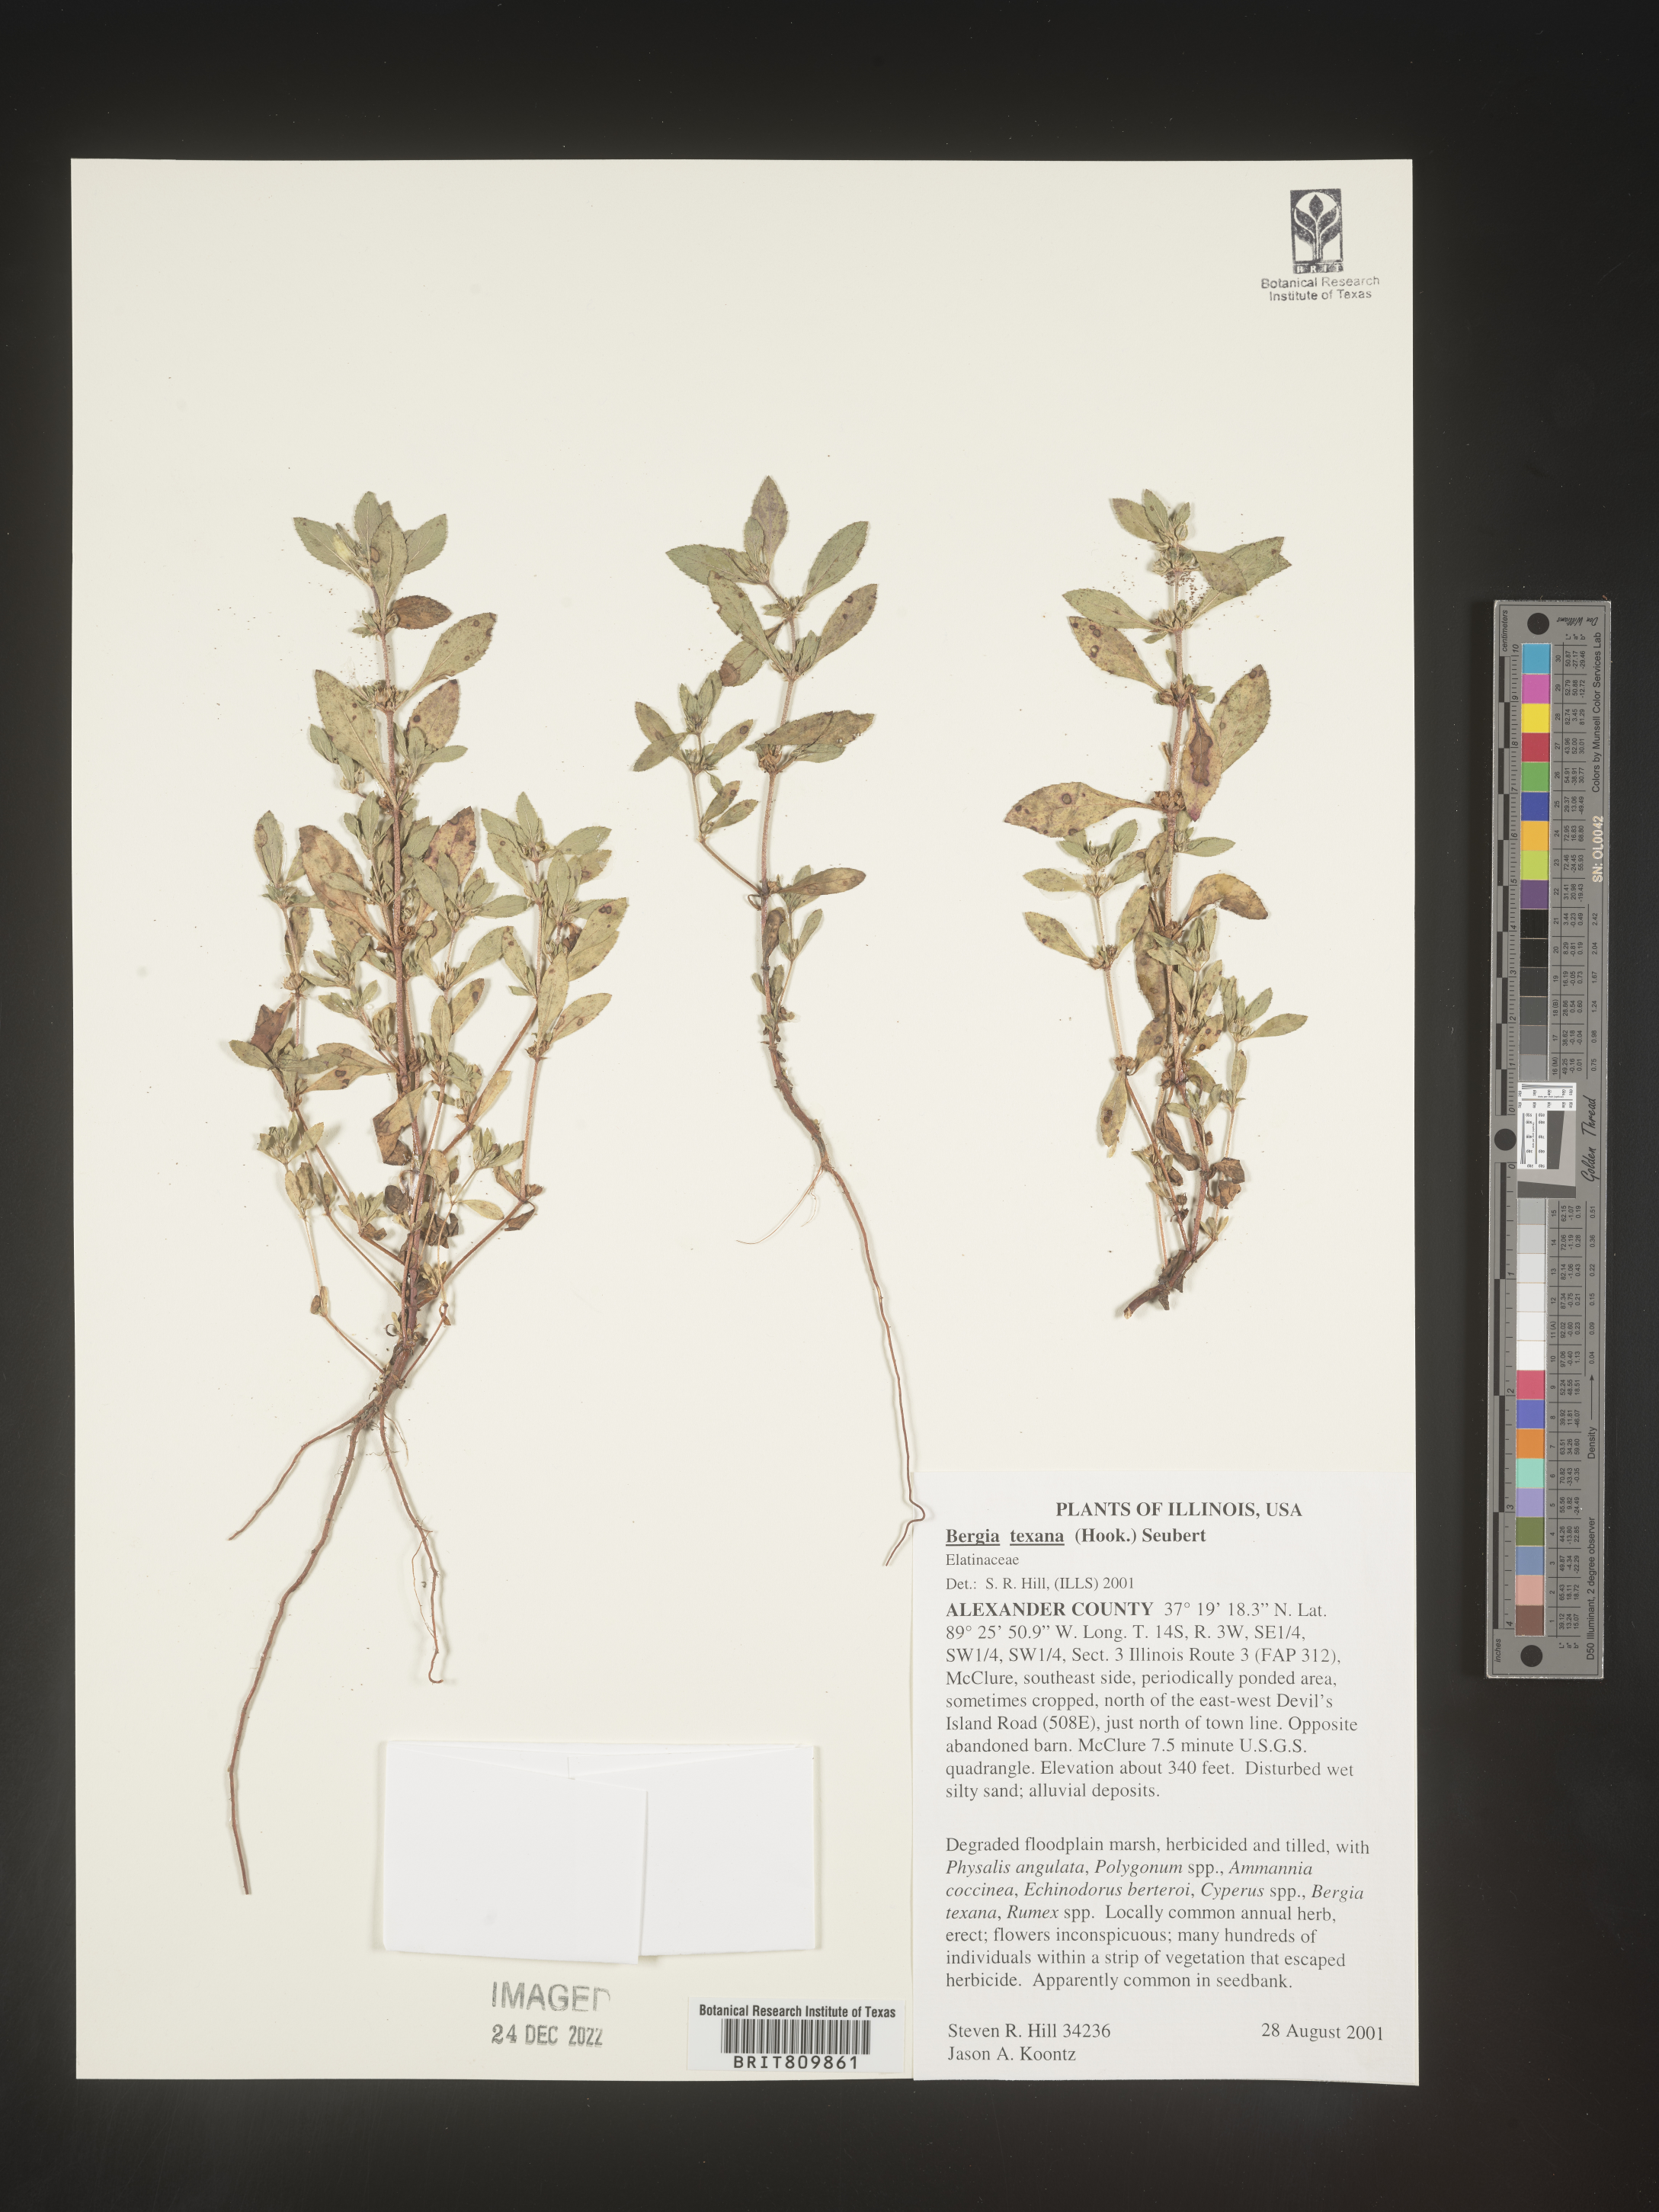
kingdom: Plantae
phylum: Tracheophyta
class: Magnoliopsida
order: Malpighiales
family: Elatinaceae
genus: Bergia
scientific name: Bergia
